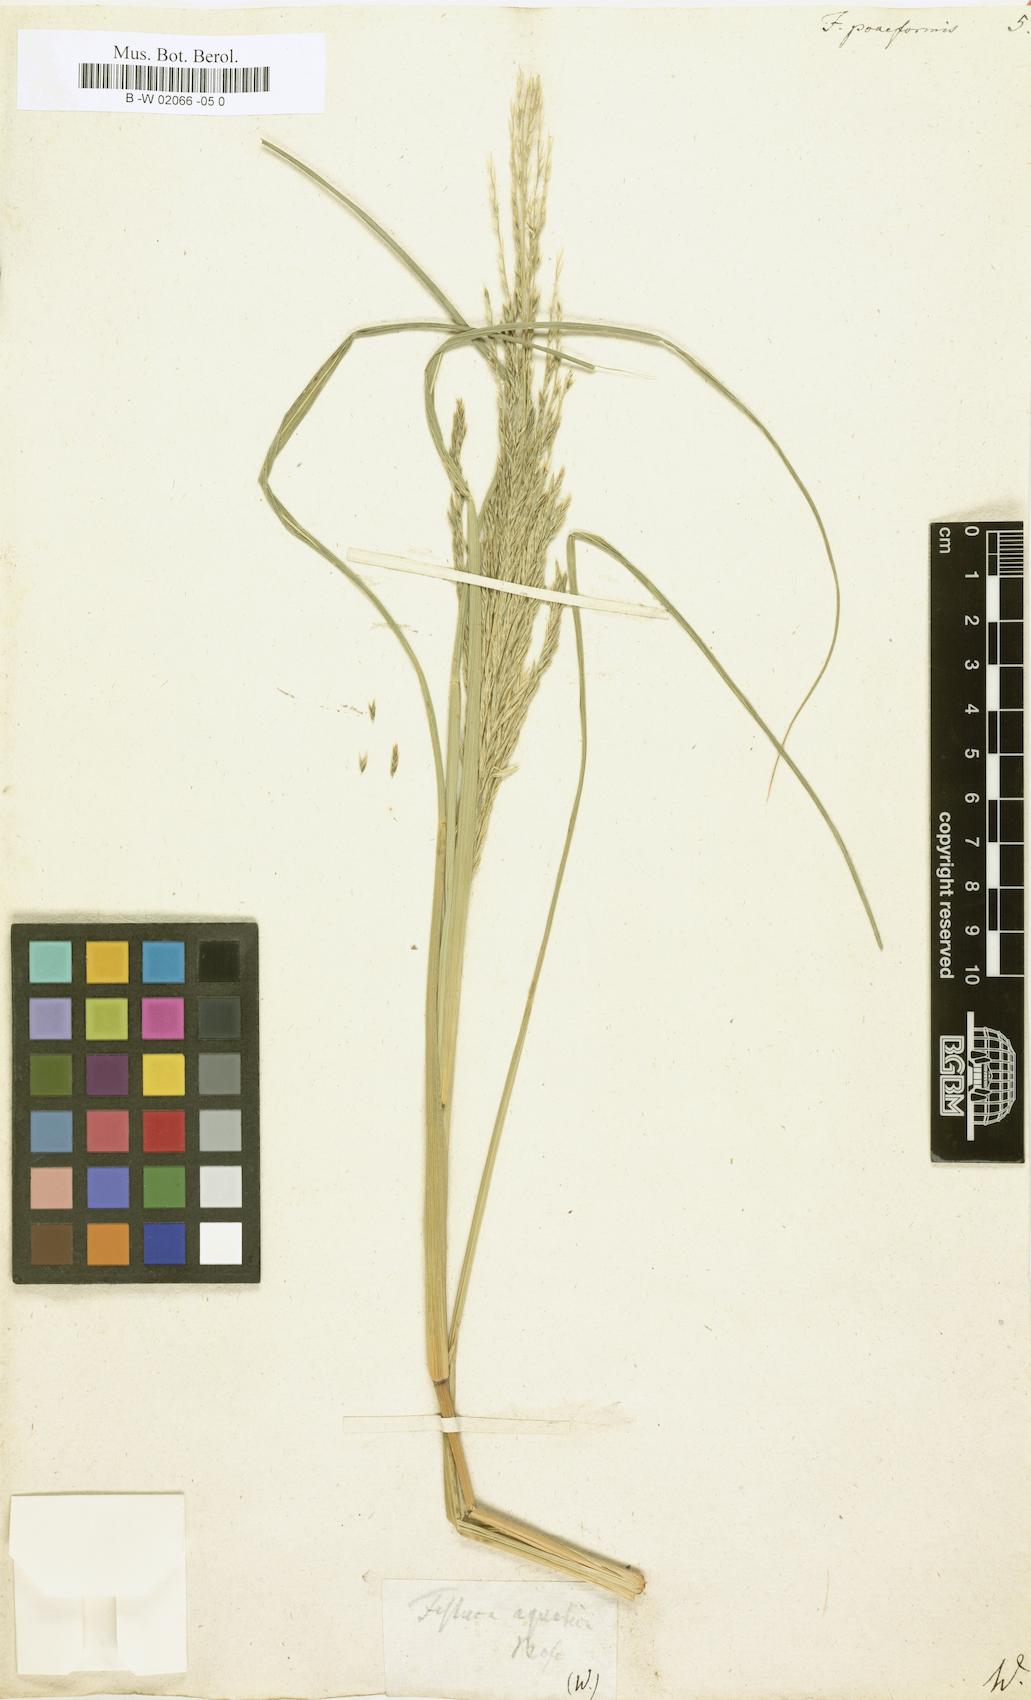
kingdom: Plantae
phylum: Tracheophyta
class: Liliopsida
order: Poales
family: Poaceae
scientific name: Poaceae
